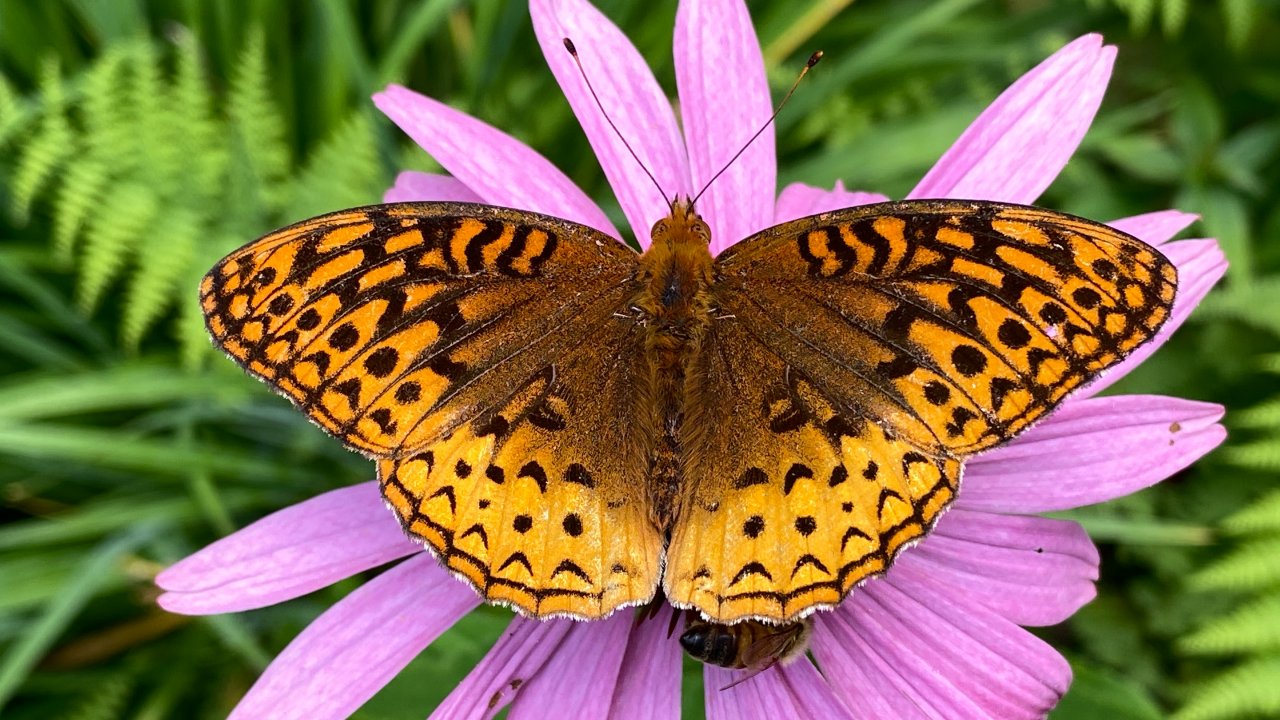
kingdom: Animalia
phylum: Arthropoda
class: Insecta
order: Lepidoptera
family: Nymphalidae
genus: Speyeria
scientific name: Speyeria cybele
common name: Great Spangled Fritillary
